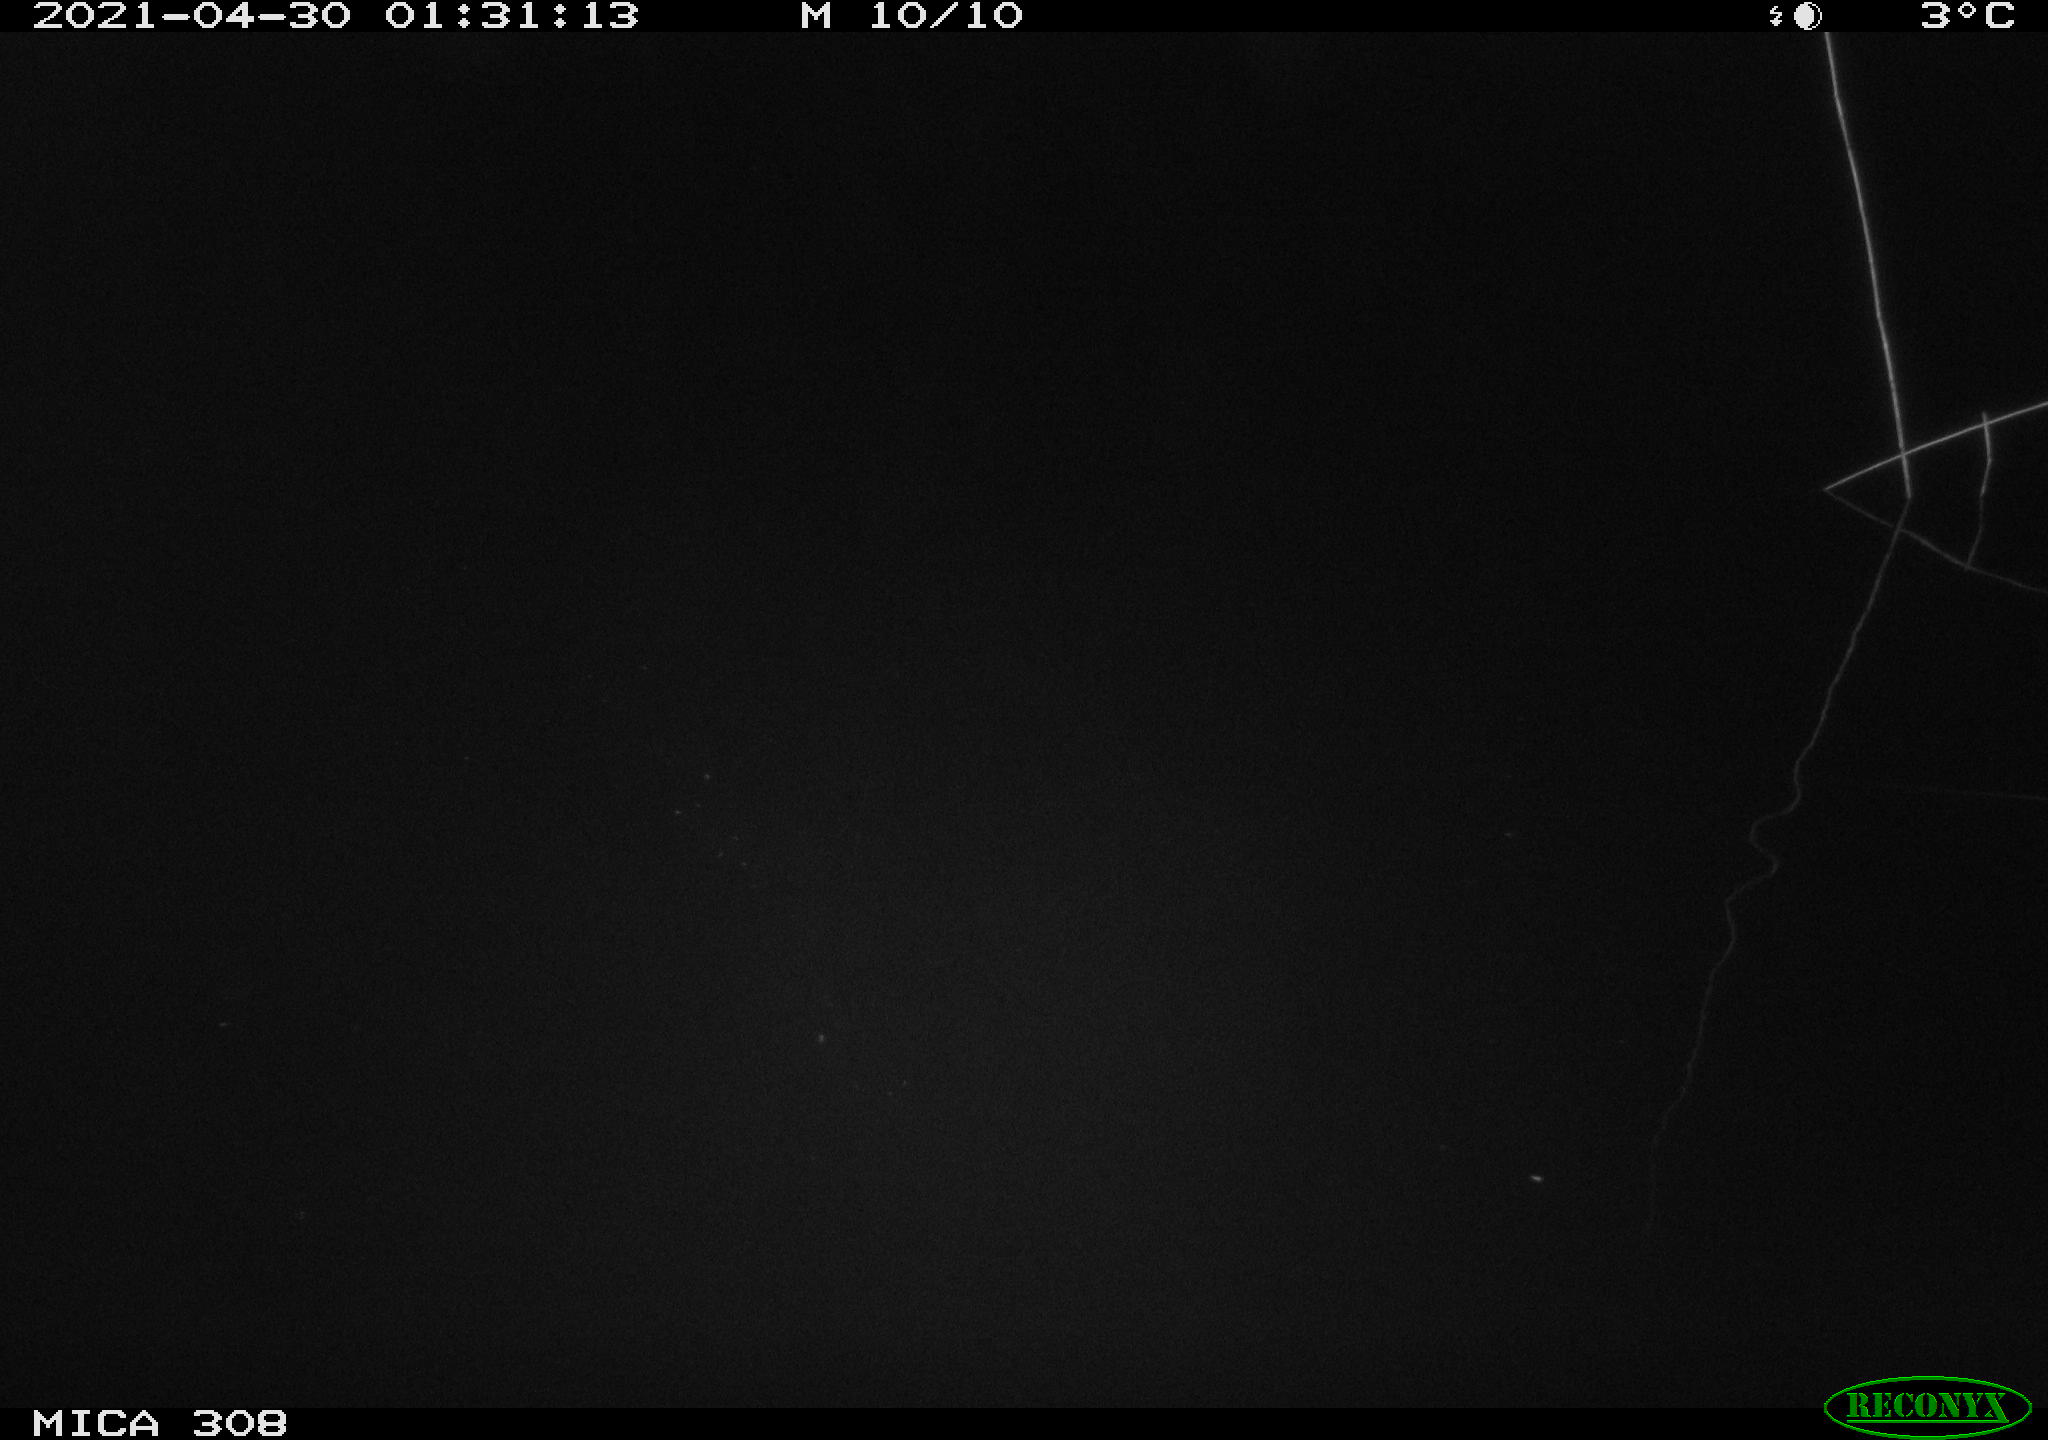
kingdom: Animalia
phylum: Chordata
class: Aves
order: Anseriformes
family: Anatidae
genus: Anas
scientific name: Anas platyrhynchos
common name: Mallard
